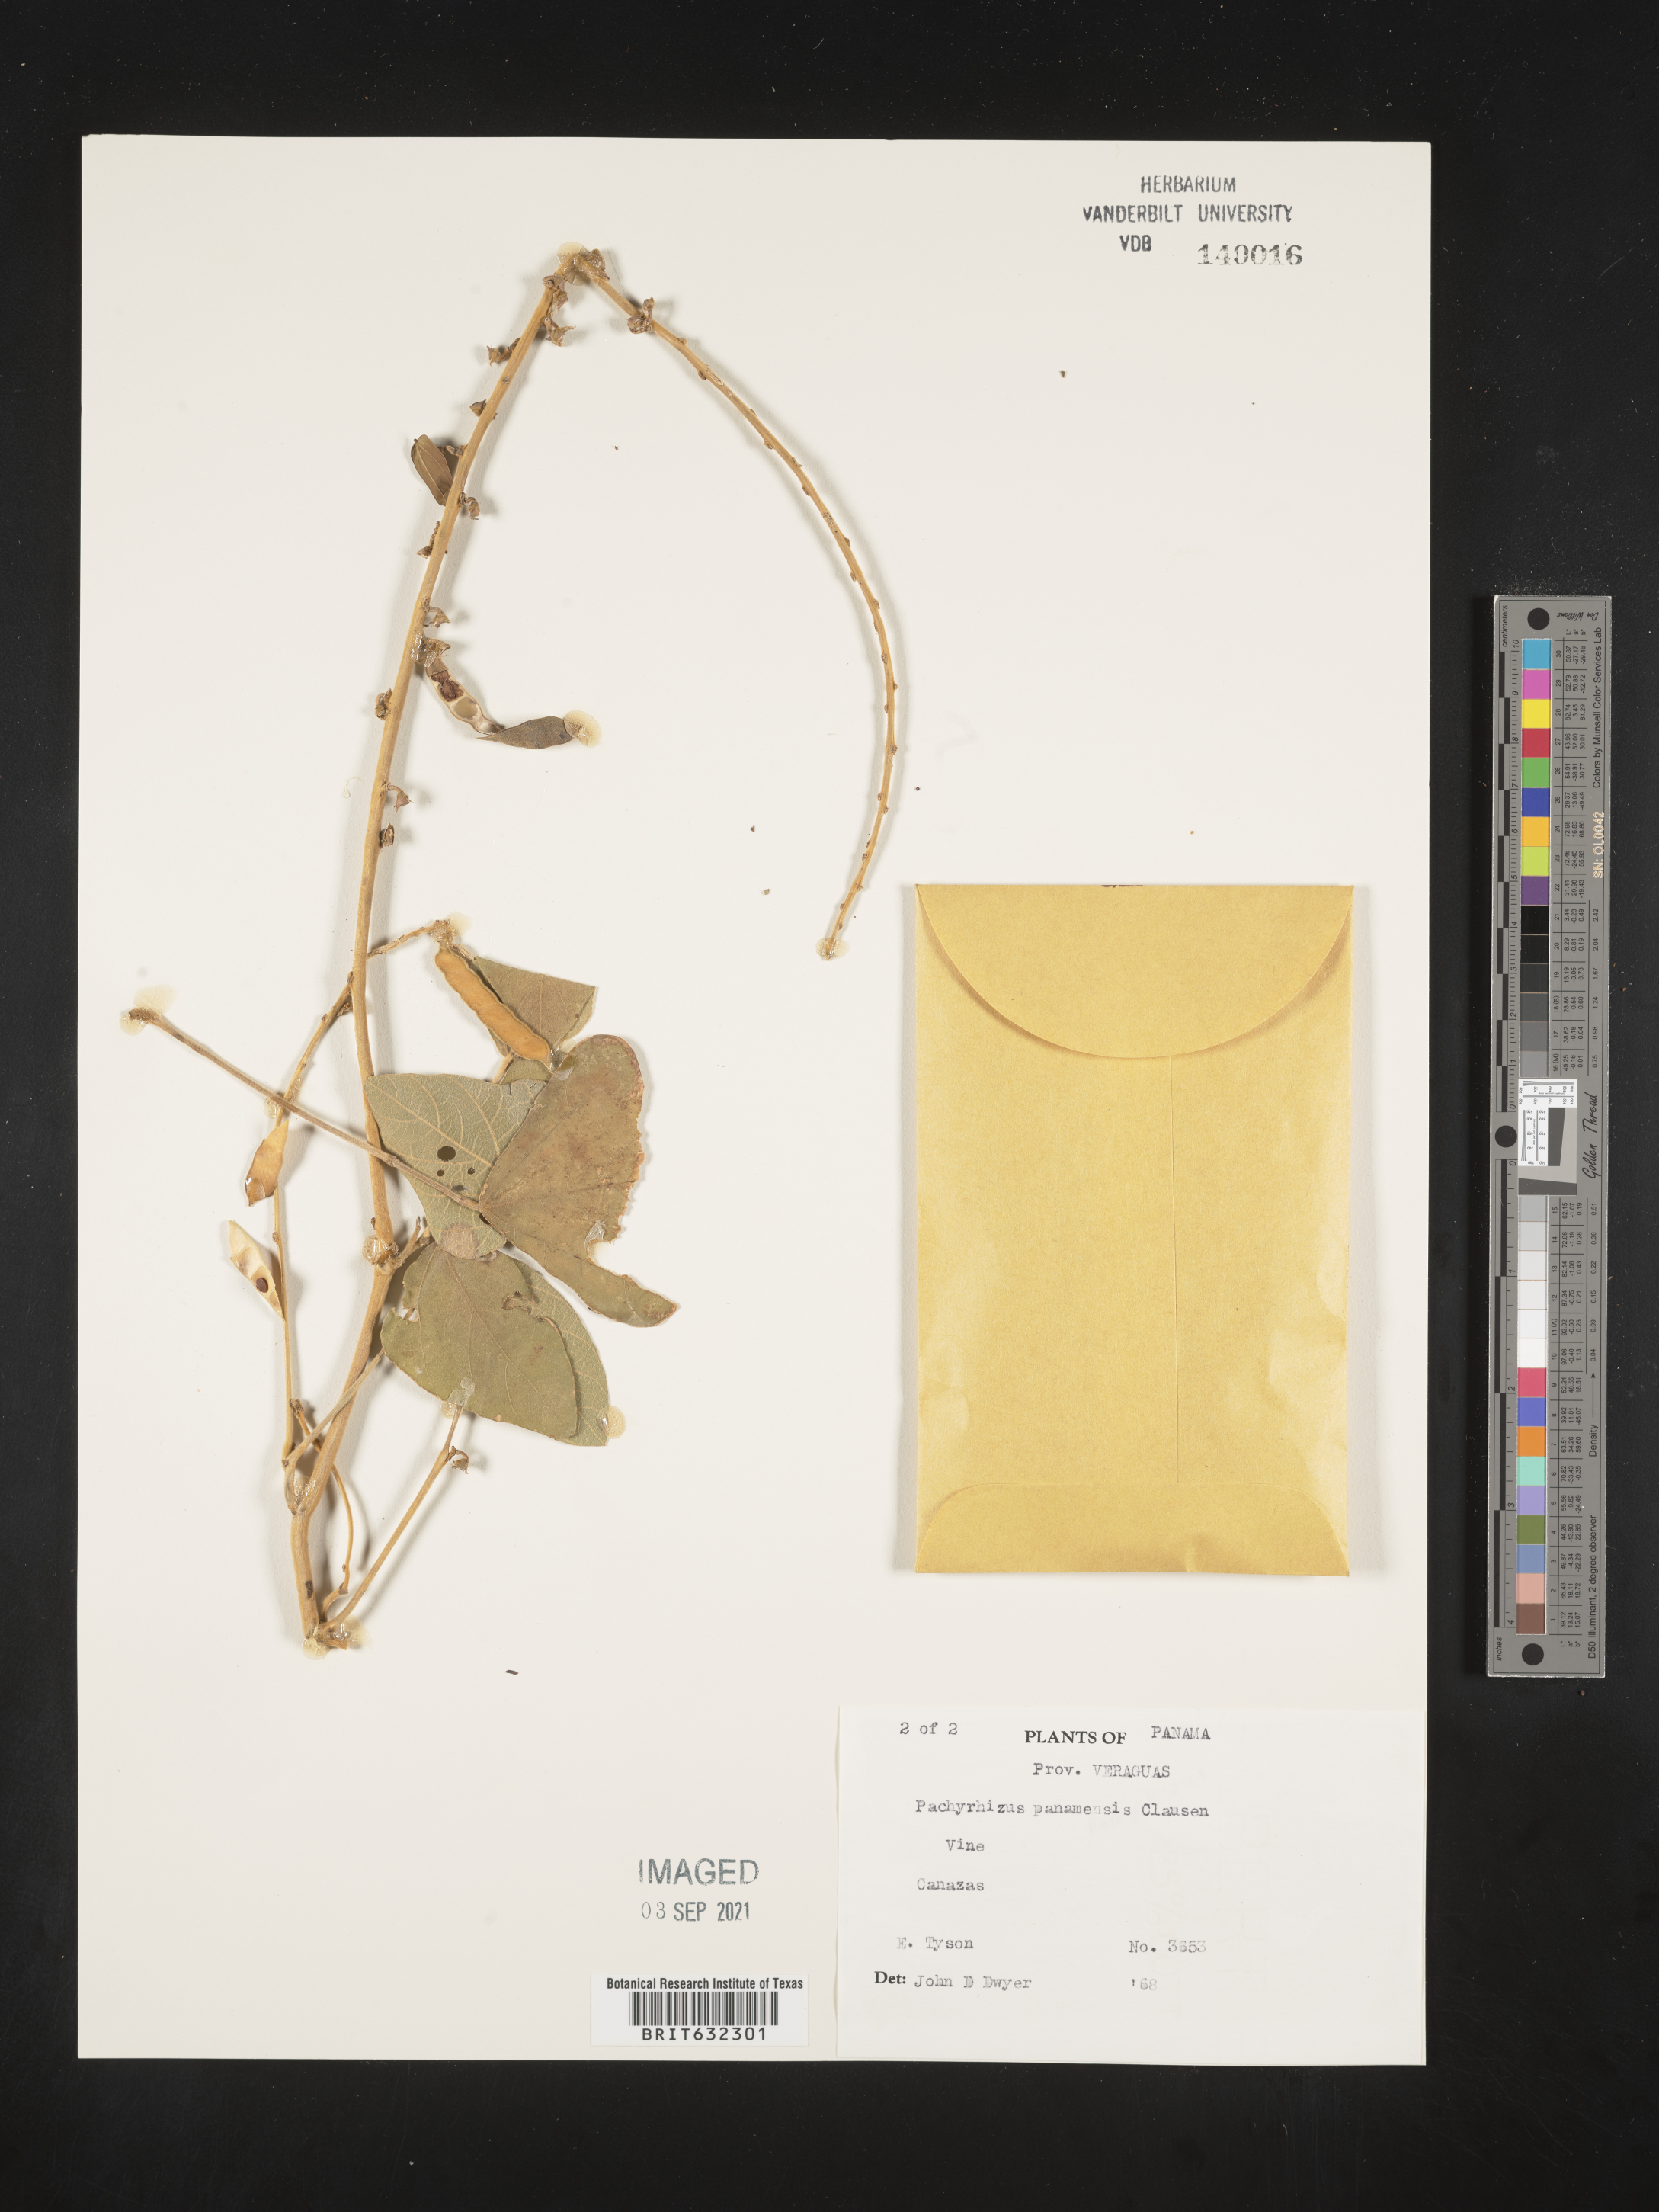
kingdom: Plantae
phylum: Tracheophyta
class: Magnoliopsida
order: Fabales
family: Fabaceae
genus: Pachyrhizus
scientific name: Pachyrhizus
